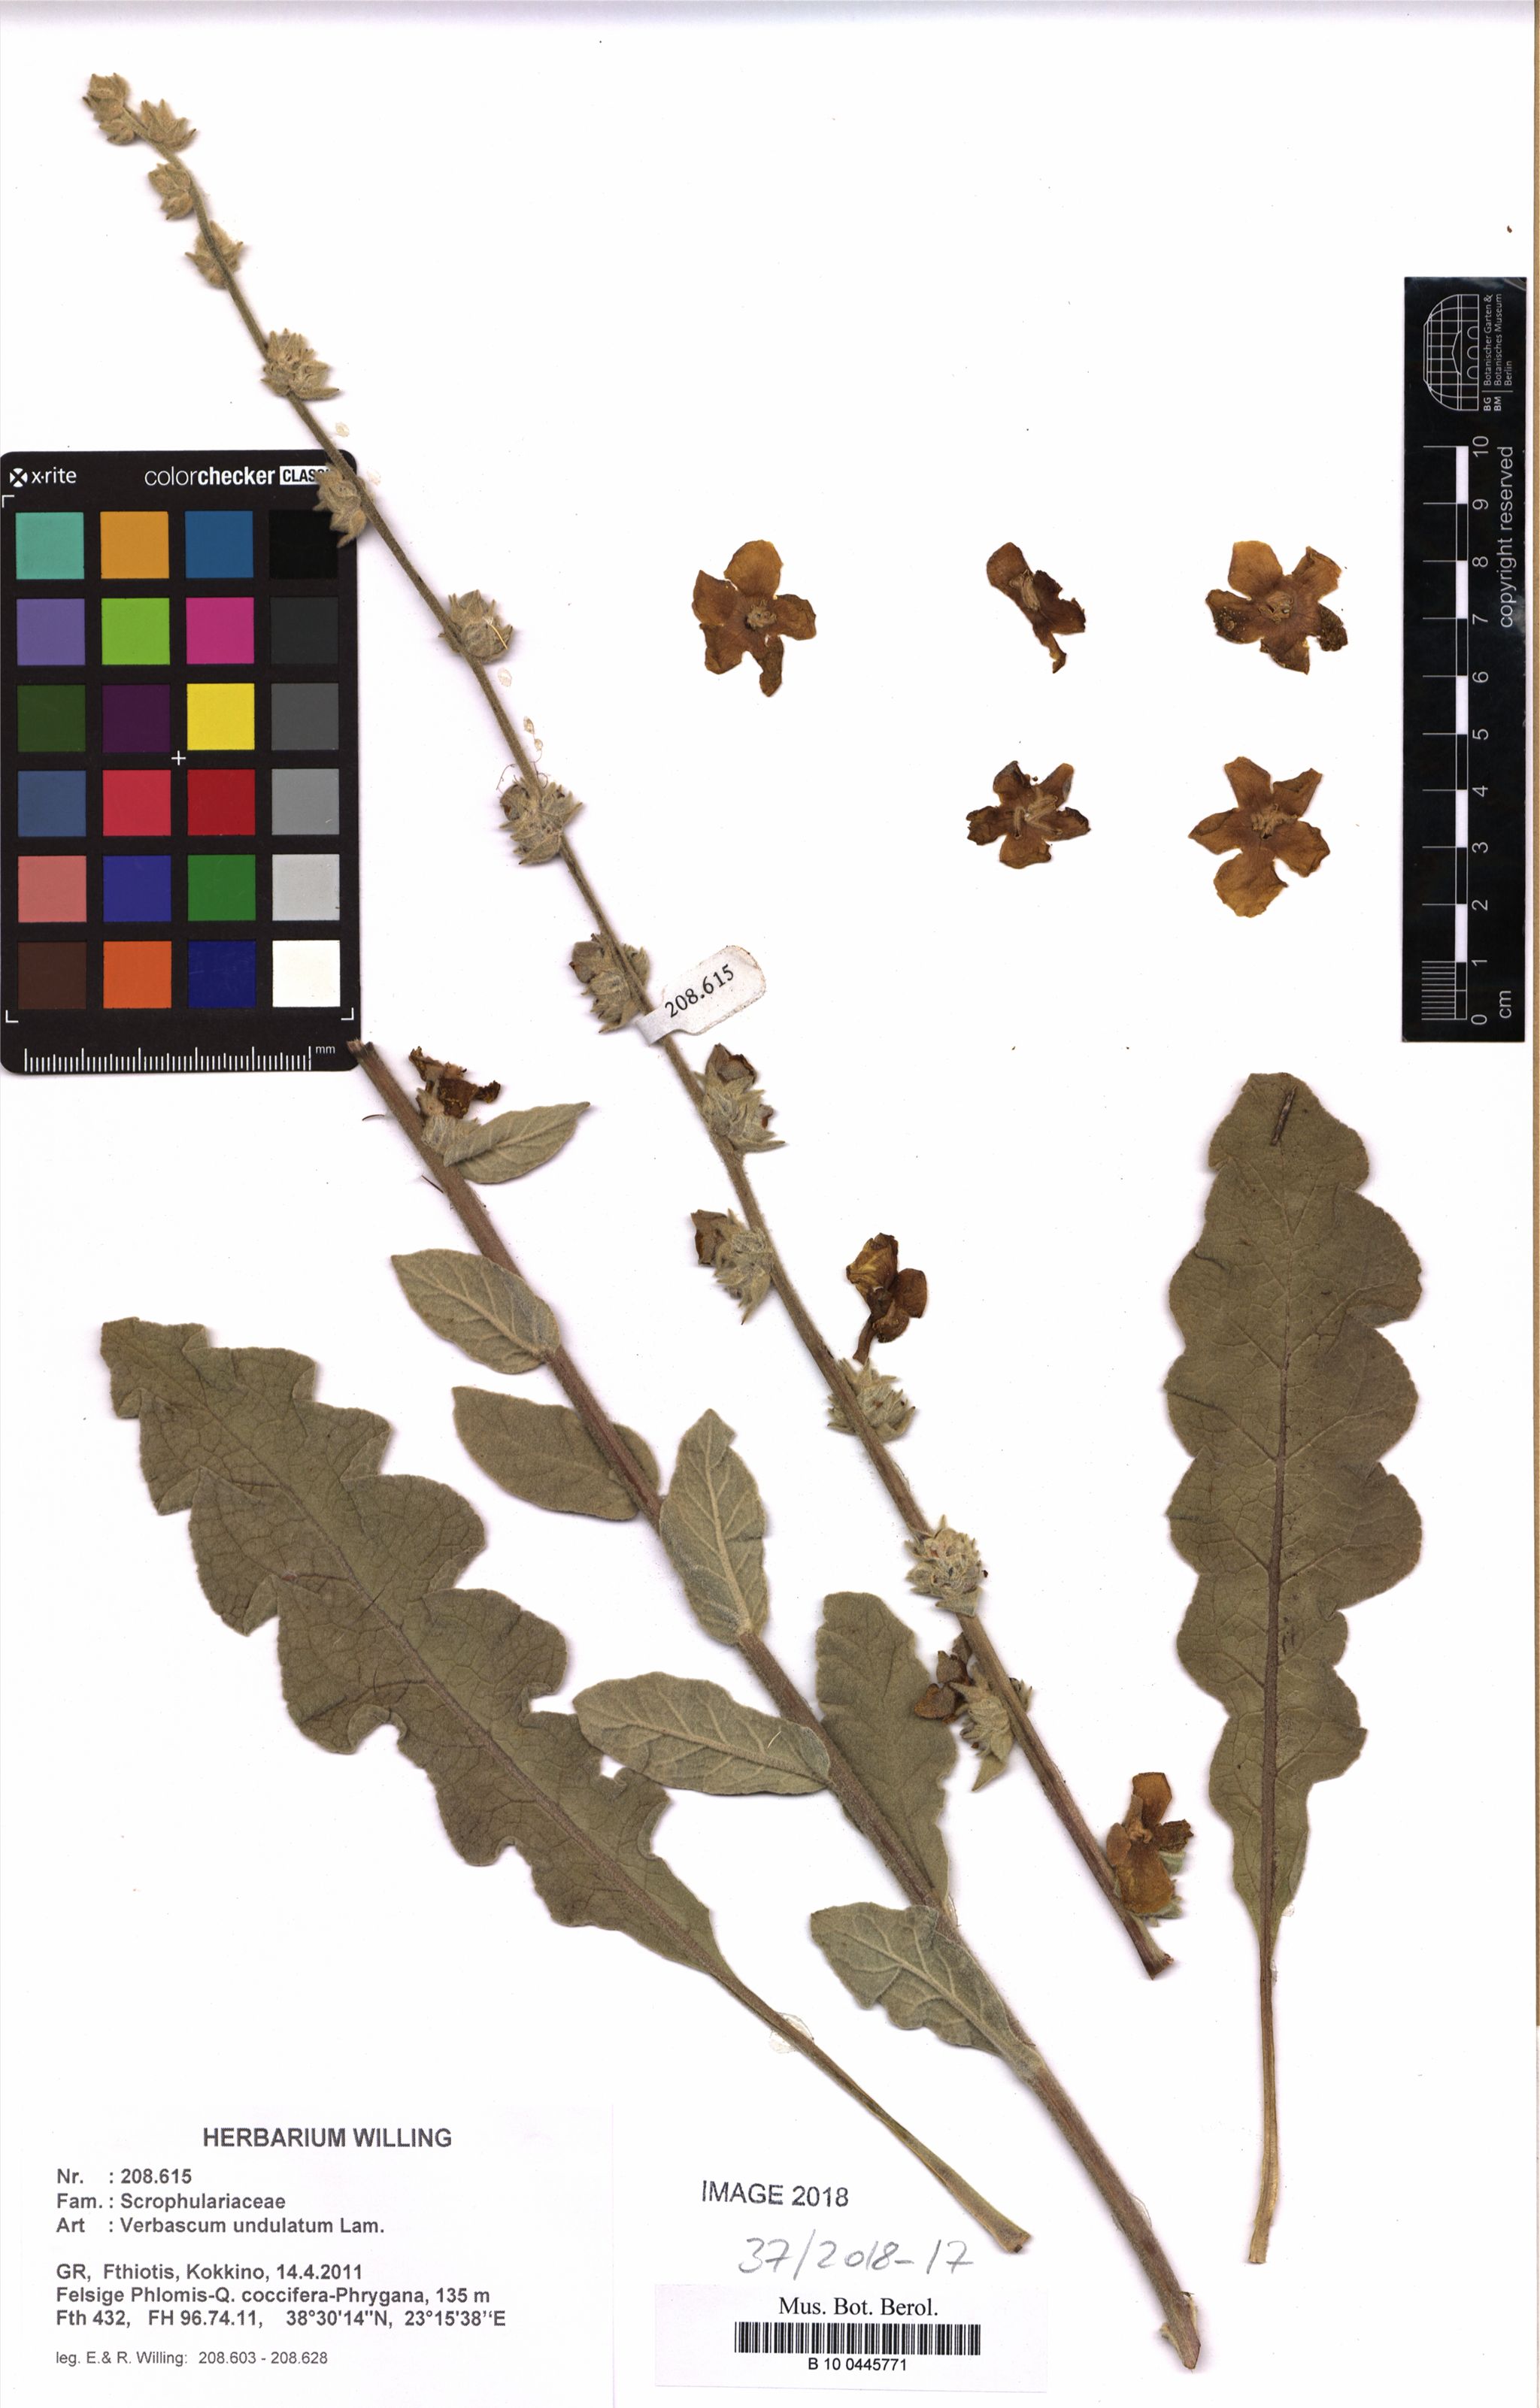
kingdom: Plantae
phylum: Tracheophyta
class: Magnoliopsida
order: Lamiales
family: Scrophulariaceae
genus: Verbascum
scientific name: Verbascum undulatum
